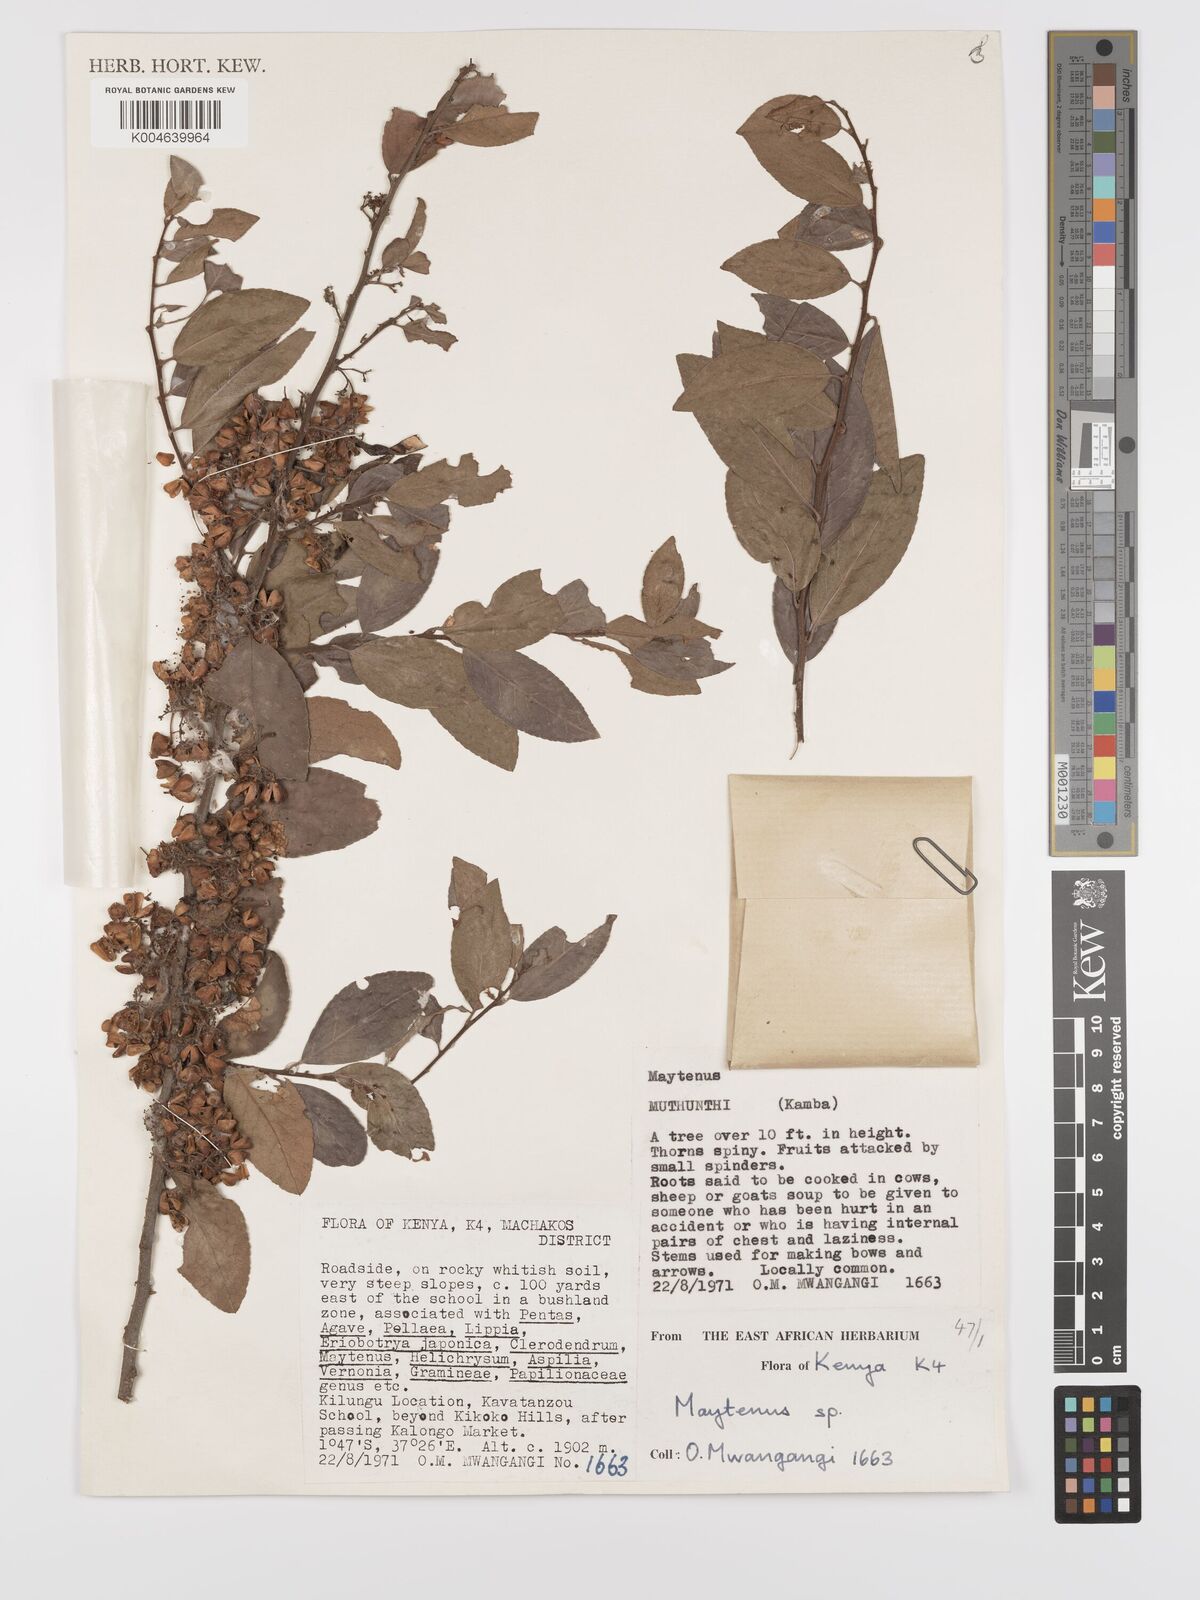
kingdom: Plantae
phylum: Tracheophyta
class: Magnoliopsida
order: Celastrales
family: Celastraceae
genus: Gymnosporia
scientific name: Gymnosporia
